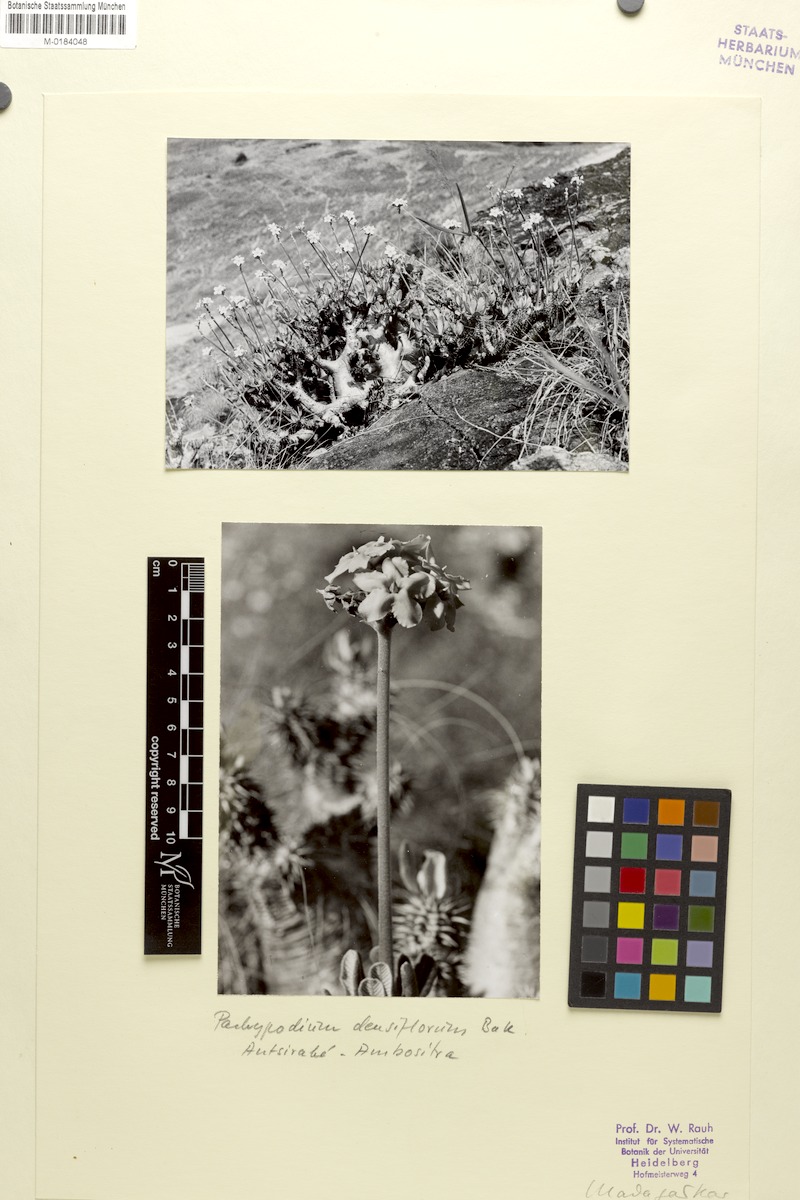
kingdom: Plantae
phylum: Tracheophyta
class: Magnoliopsida
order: Gentianales
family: Apocynaceae
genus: Pachypodium
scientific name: Pachypodium densiflorum
